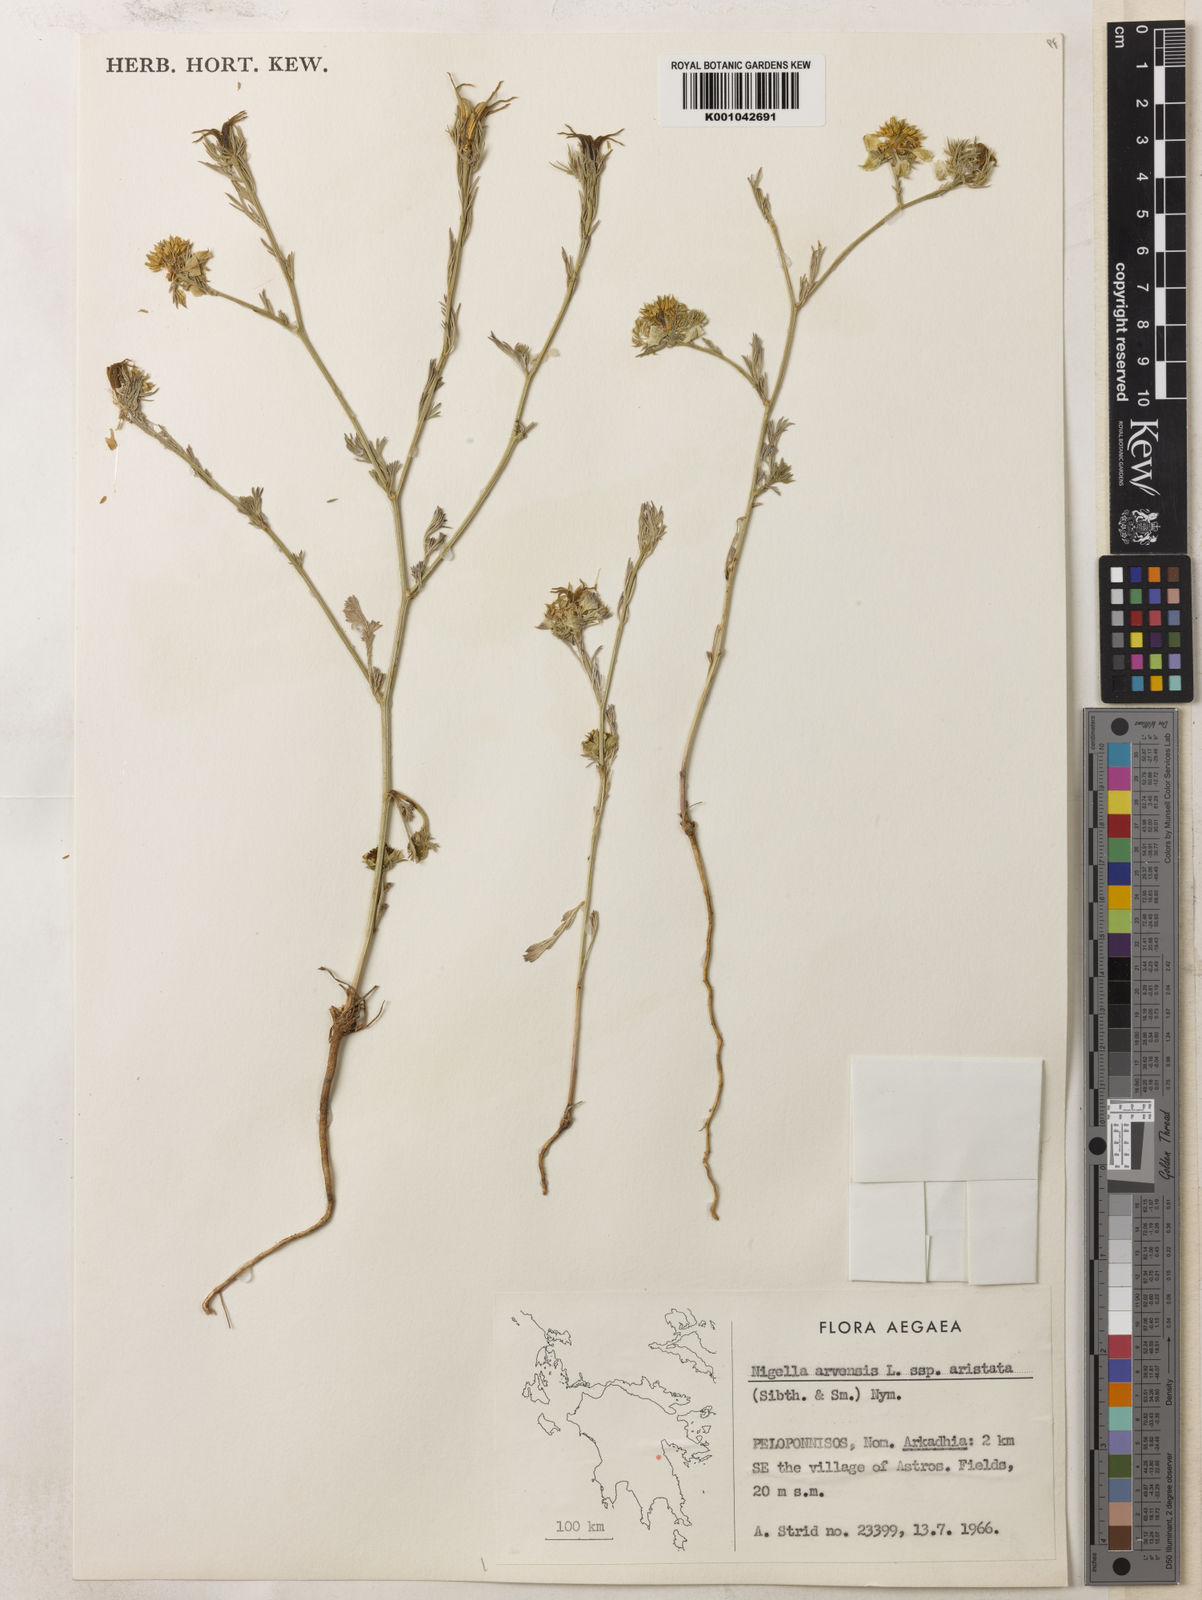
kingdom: Plantae
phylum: Tracheophyta
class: Magnoliopsida
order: Ranunculales
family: Ranunculaceae
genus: Nigella
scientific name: Nigella arvensis
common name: Wild fennel-flower
